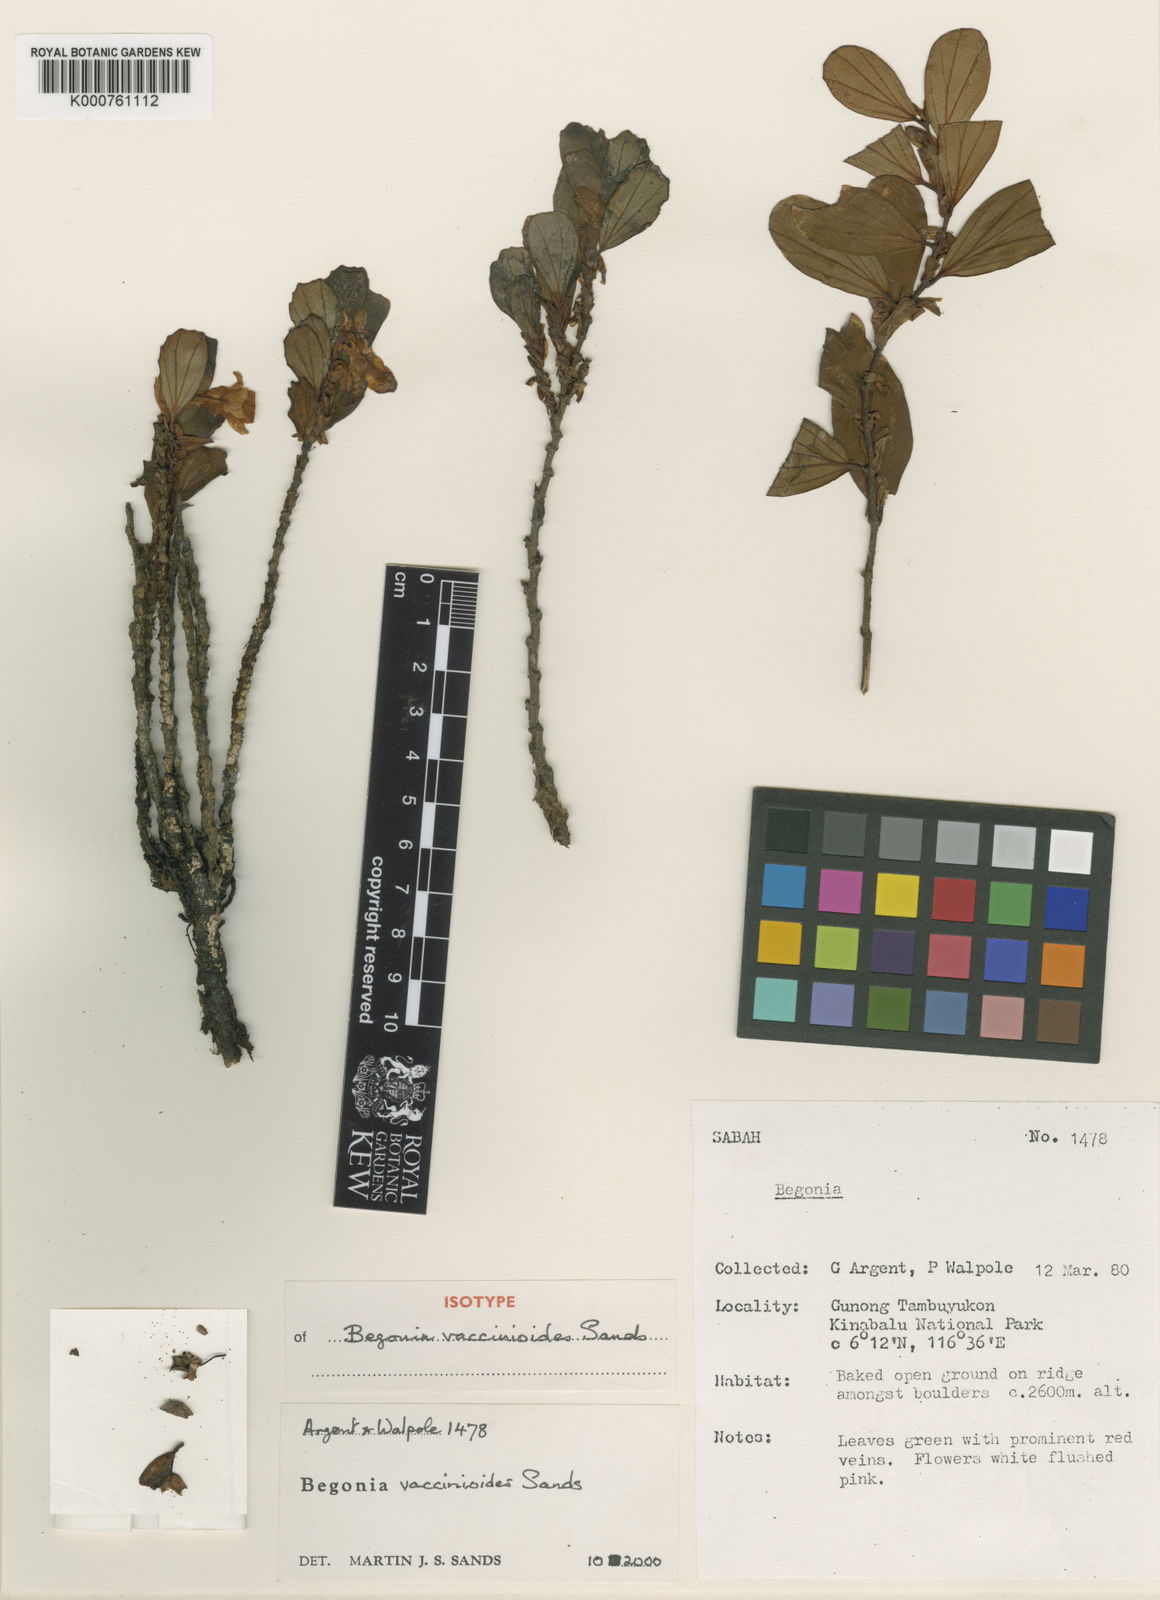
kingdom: Plantae
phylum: Tracheophyta
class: Magnoliopsida
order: Cucurbitales
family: Begoniaceae
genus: Begonia
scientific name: Begonia vaccinioides
